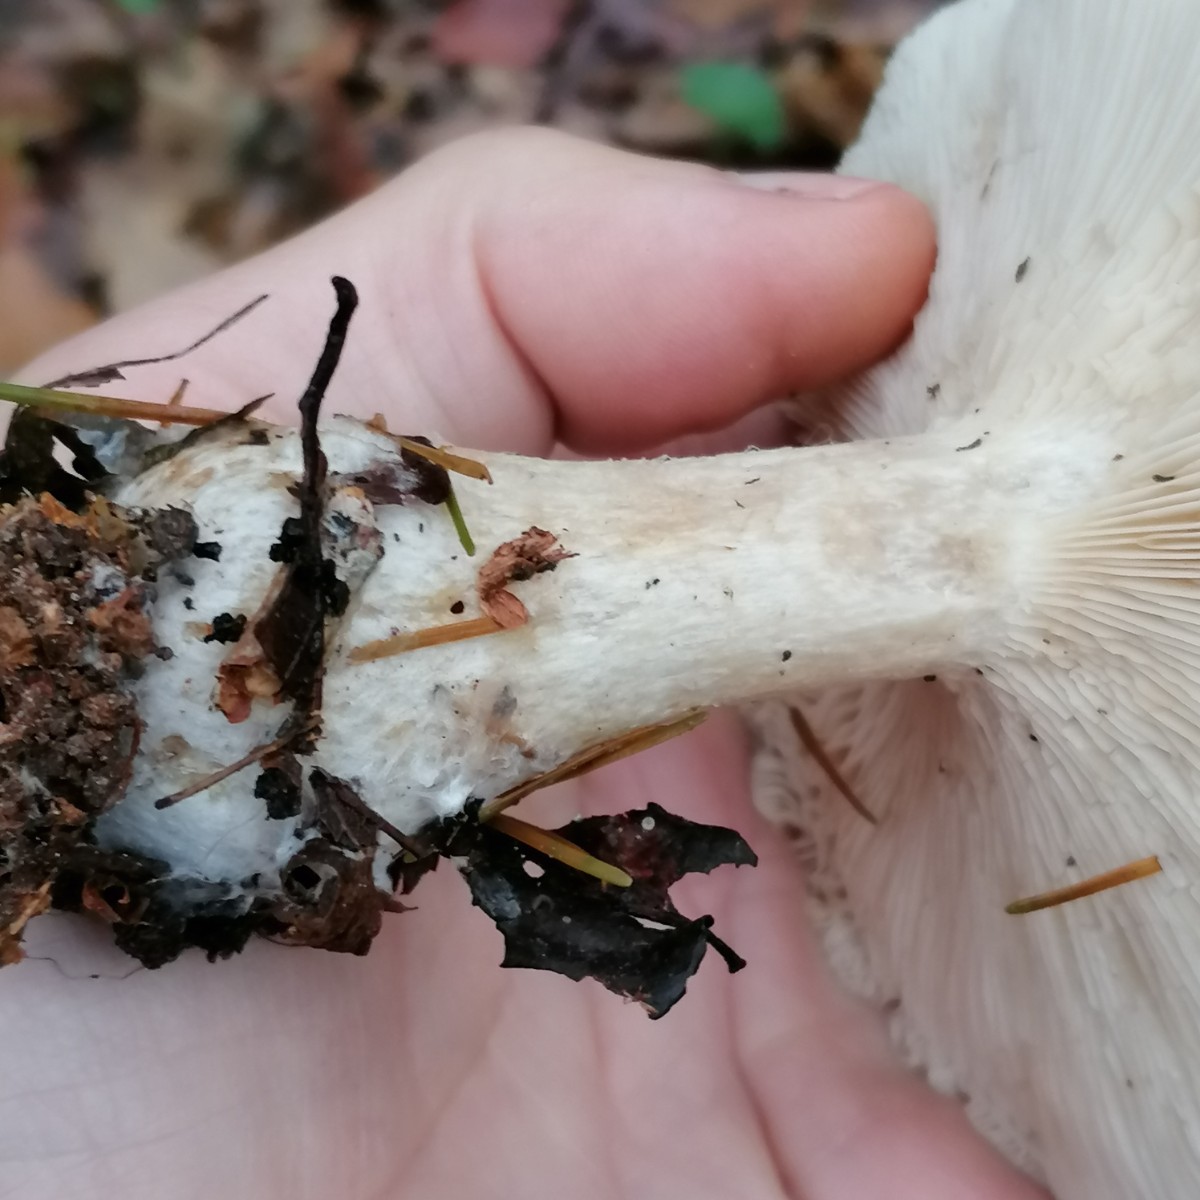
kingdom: Fungi
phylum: Basidiomycota
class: Agaricomycetes
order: Agaricales
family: Tricholomataceae
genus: Clitocybe
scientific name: Clitocybe nebularis
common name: tåge-tragthat
